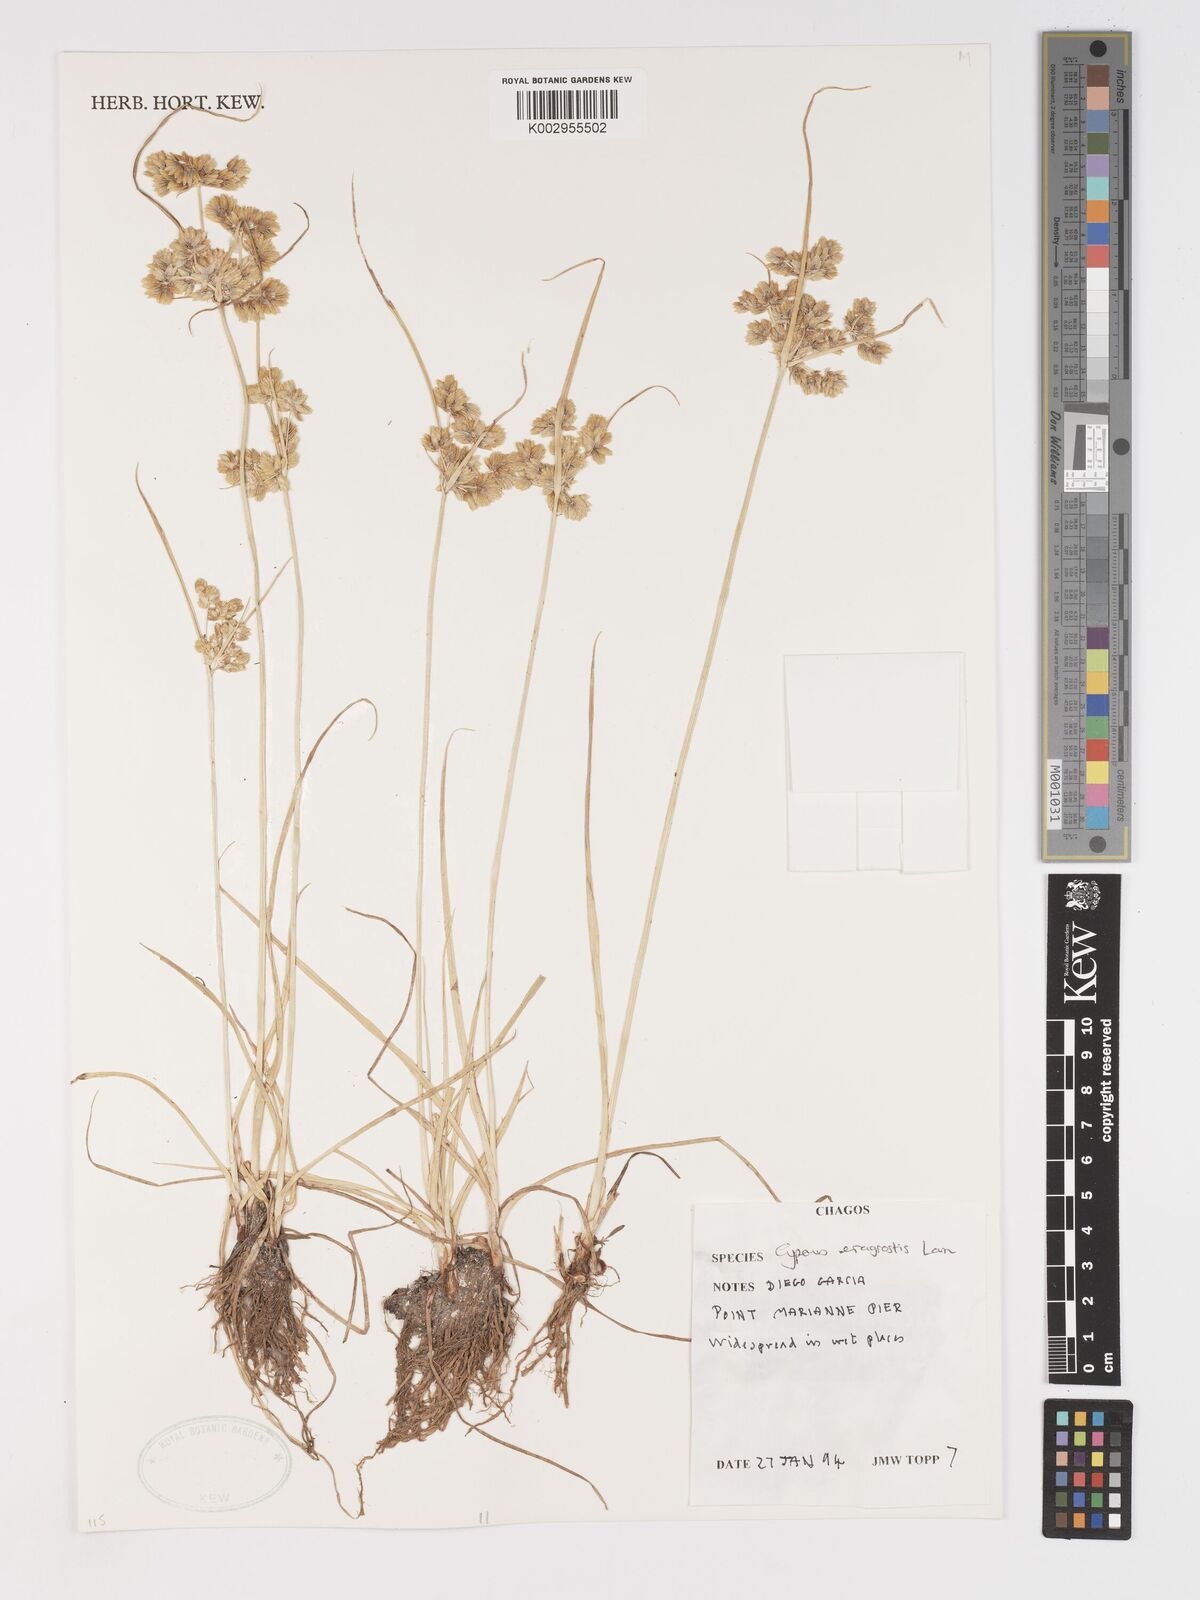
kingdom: Plantae
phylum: Tracheophyta
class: Liliopsida
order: Poales
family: Cyperaceae
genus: Cyperus
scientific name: Cyperus eragrostis
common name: Tall flatsedge
